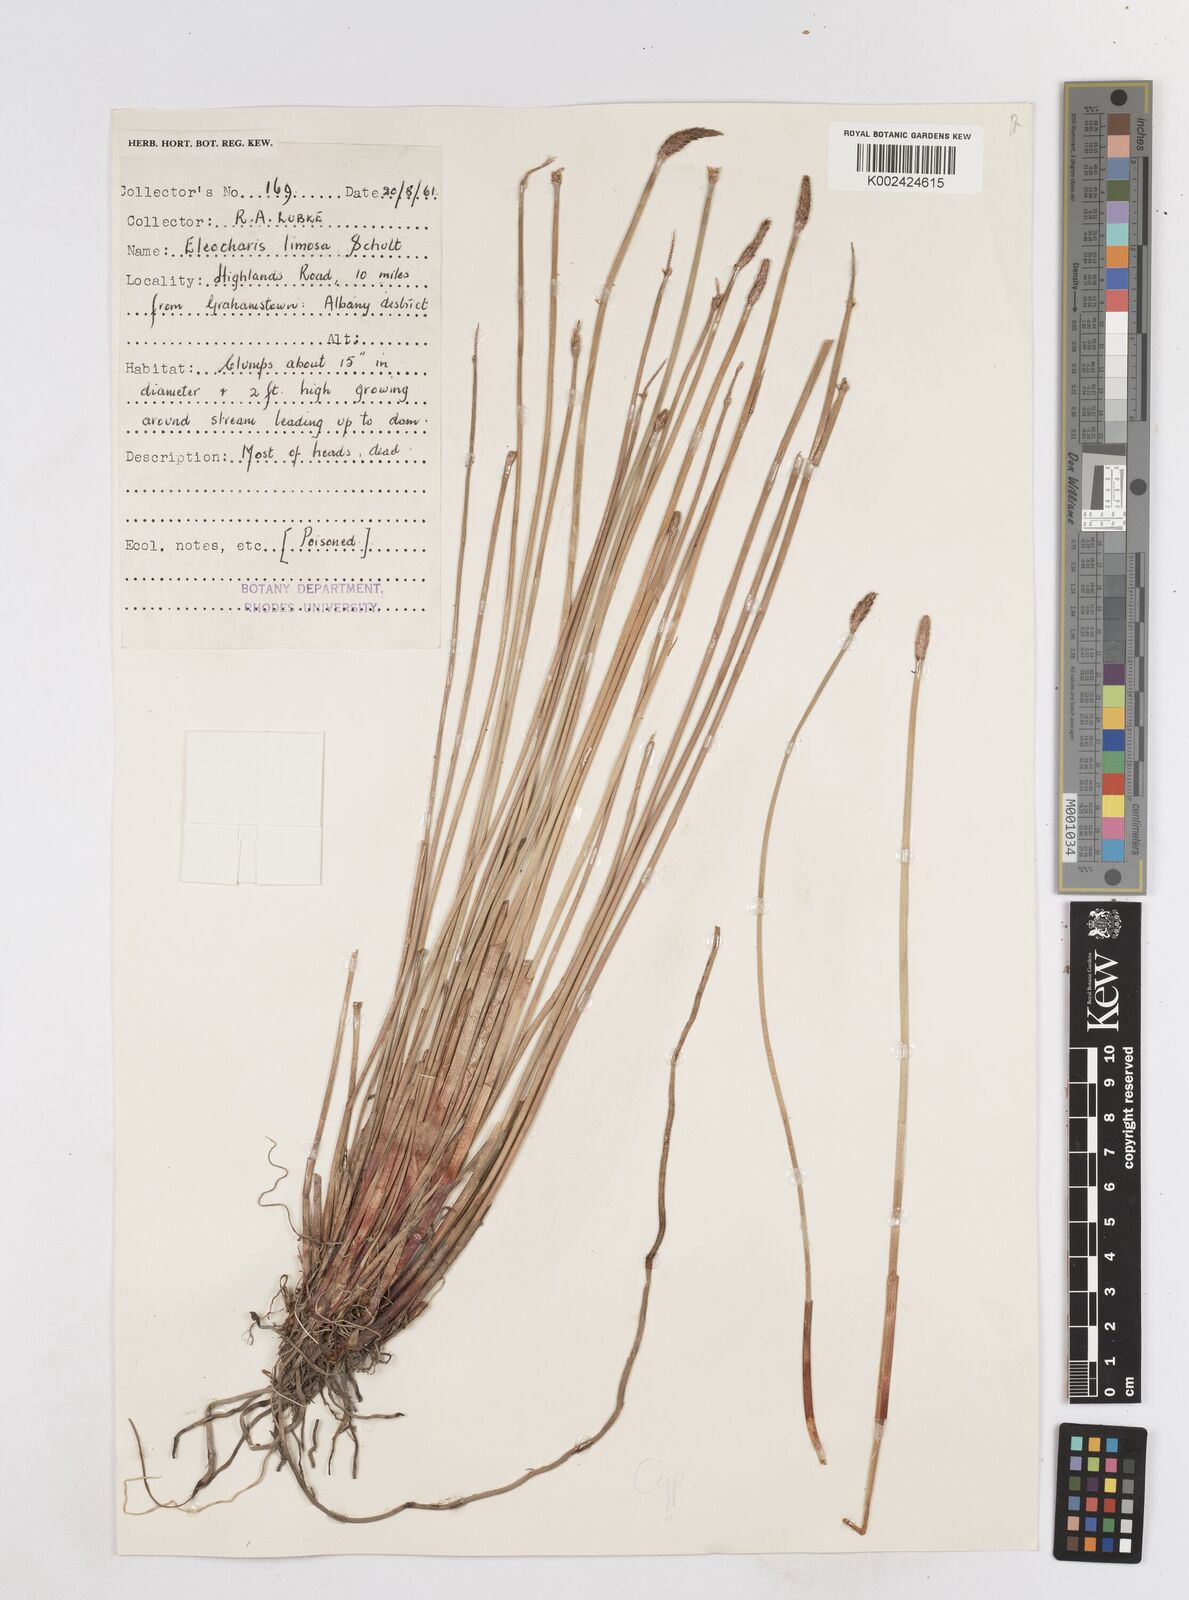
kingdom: Plantae
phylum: Tracheophyta
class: Liliopsida
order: Poales
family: Cyperaceae
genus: Eleocharis
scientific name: Eleocharis limosa
